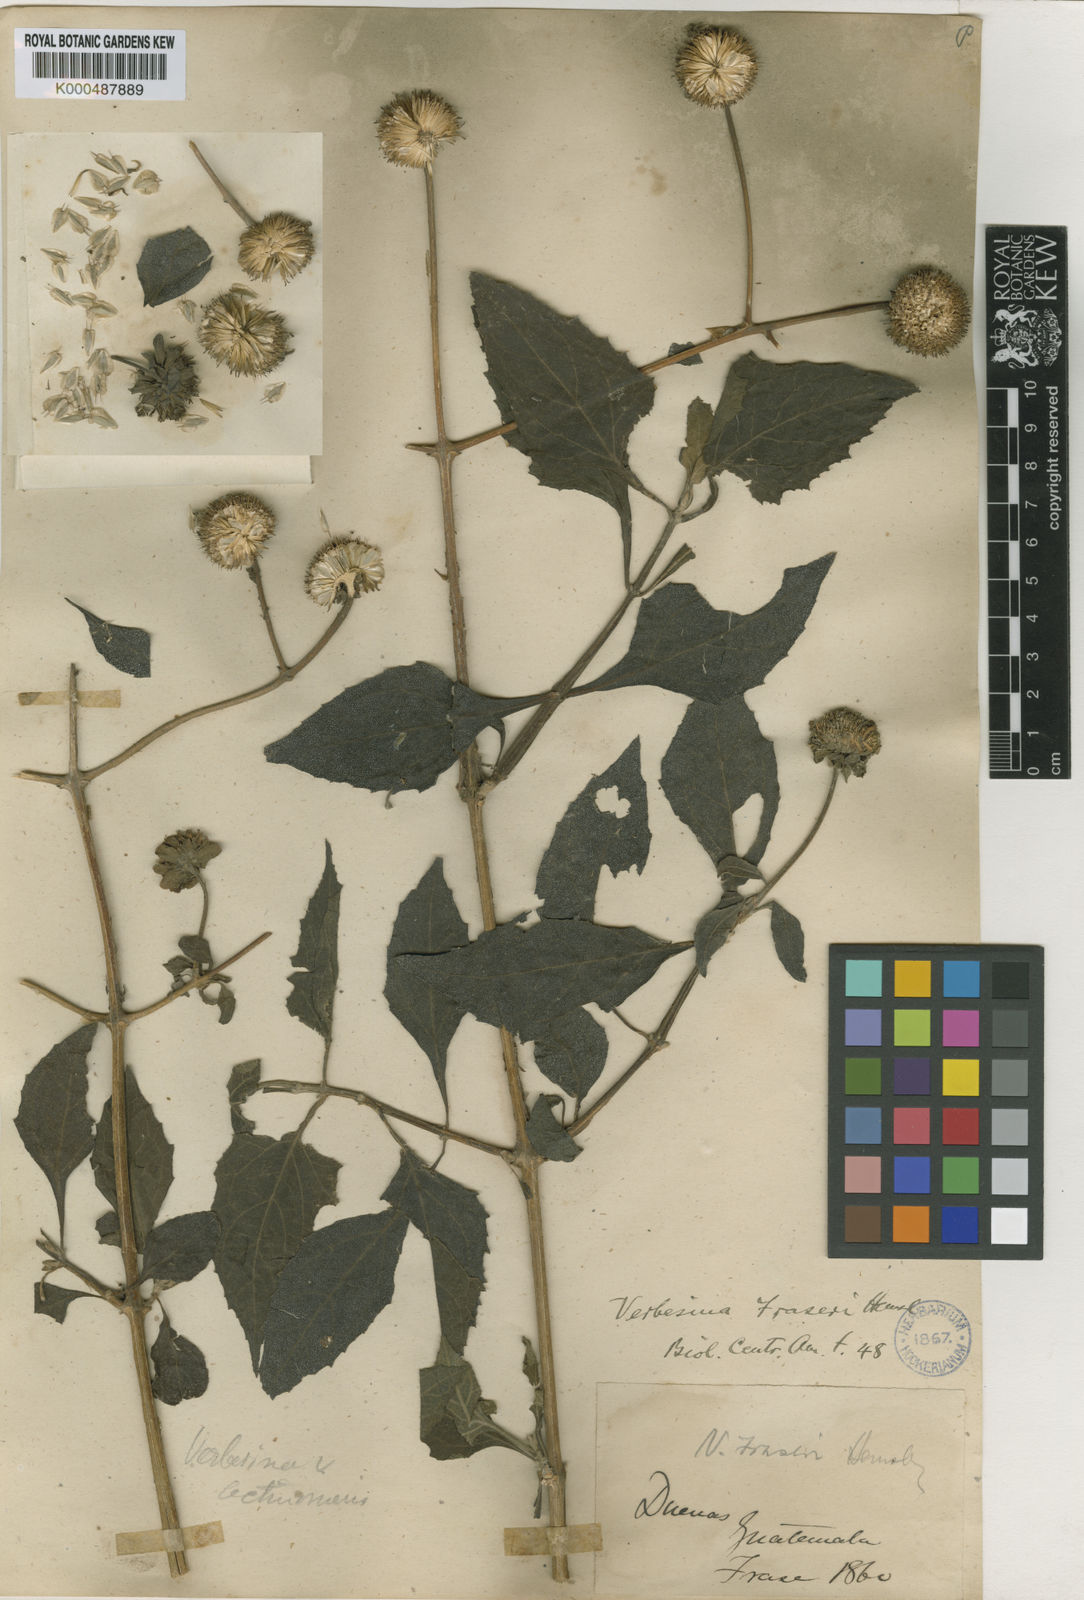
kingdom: Plantae
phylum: Tracheophyta
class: Magnoliopsida
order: Asterales
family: Asteraceae
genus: Verbesina
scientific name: Verbesina
